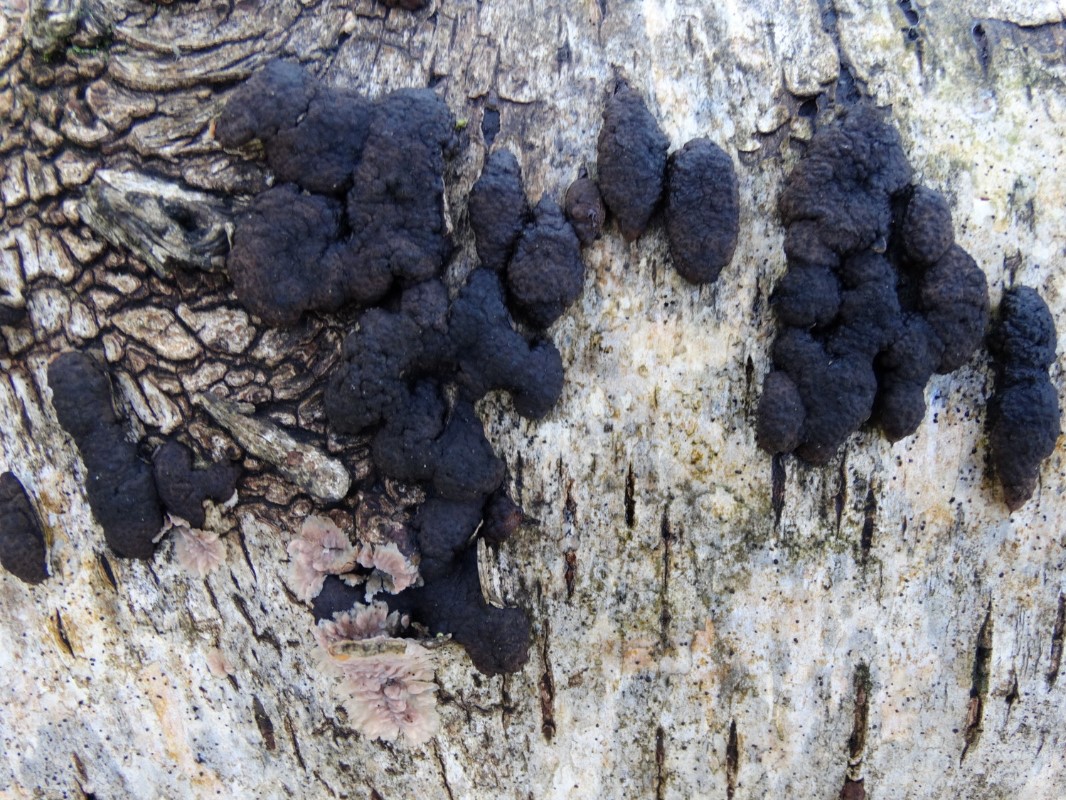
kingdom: Fungi
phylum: Ascomycota
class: Sordariomycetes
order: Xylariales
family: Hypoxylaceae
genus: Jackrogersella
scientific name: Jackrogersella multiformis
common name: foranderlig kulbær
